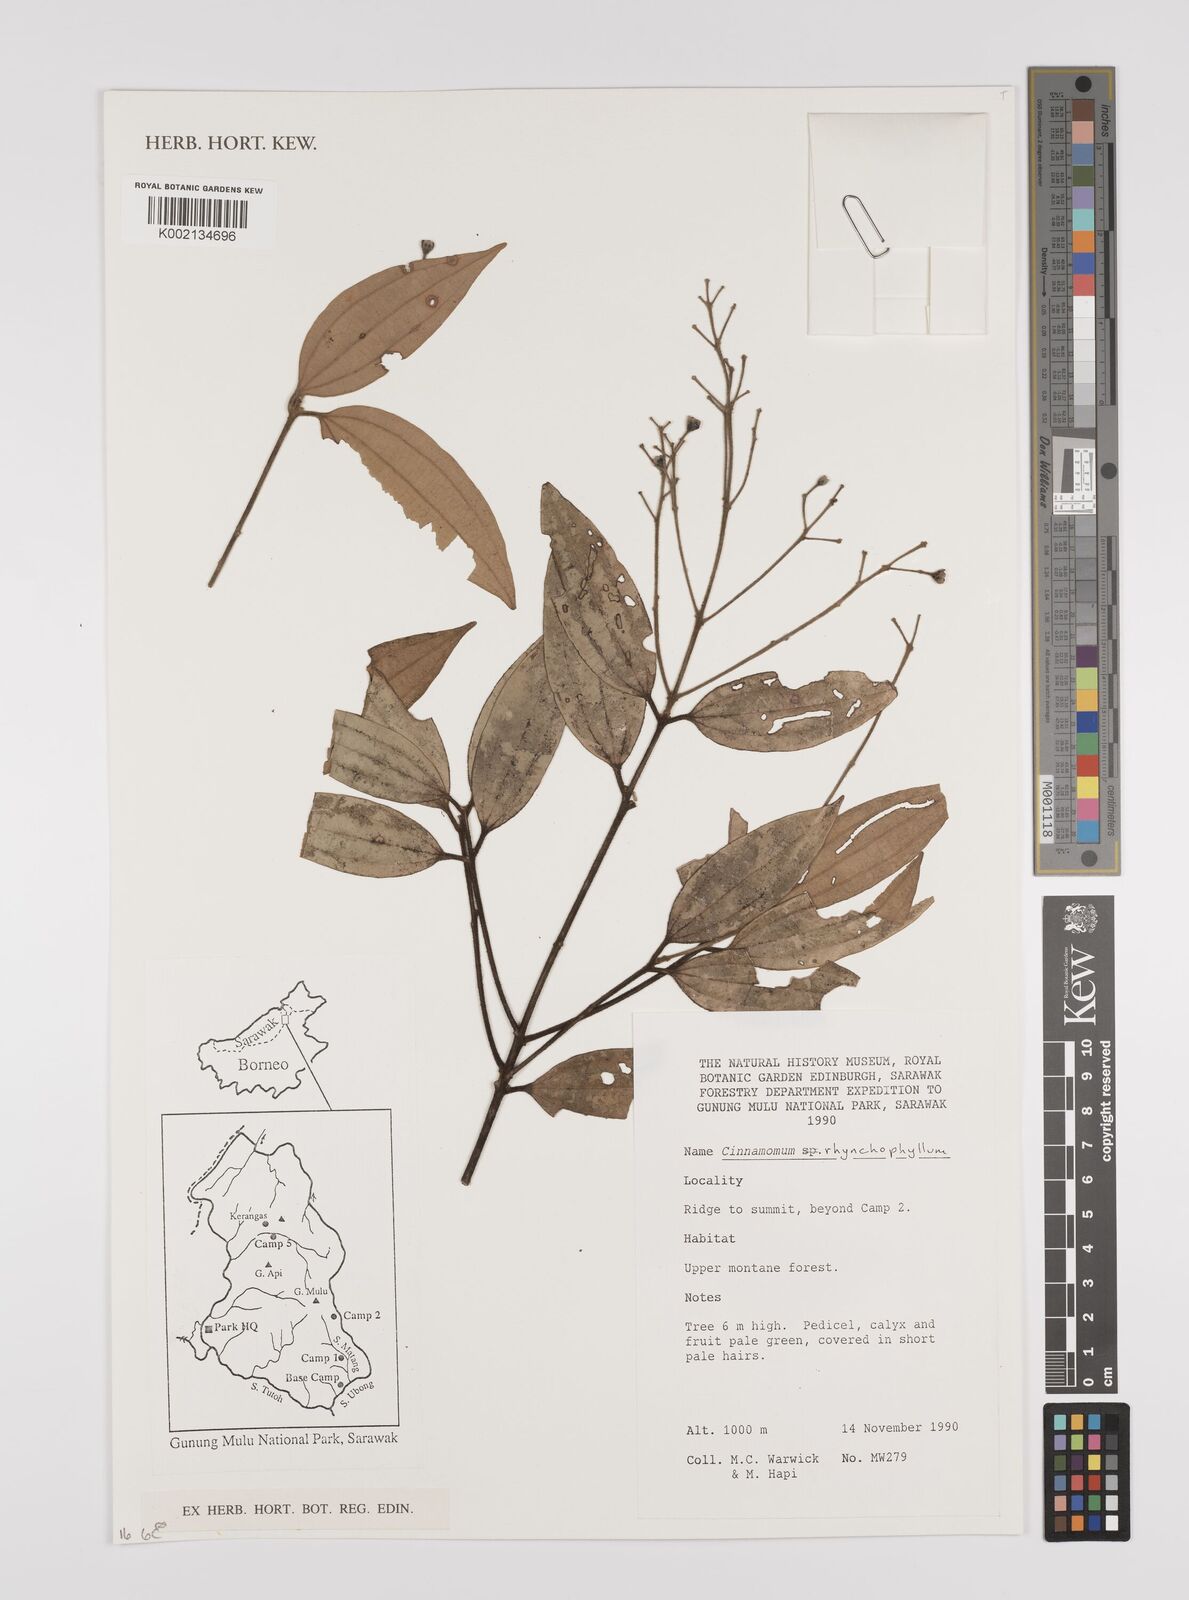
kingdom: Plantae
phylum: Tracheophyta
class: Magnoliopsida
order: Laurales
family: Lauraceae
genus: Cinnamomum
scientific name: Cinnamomum rhynchophyllum
